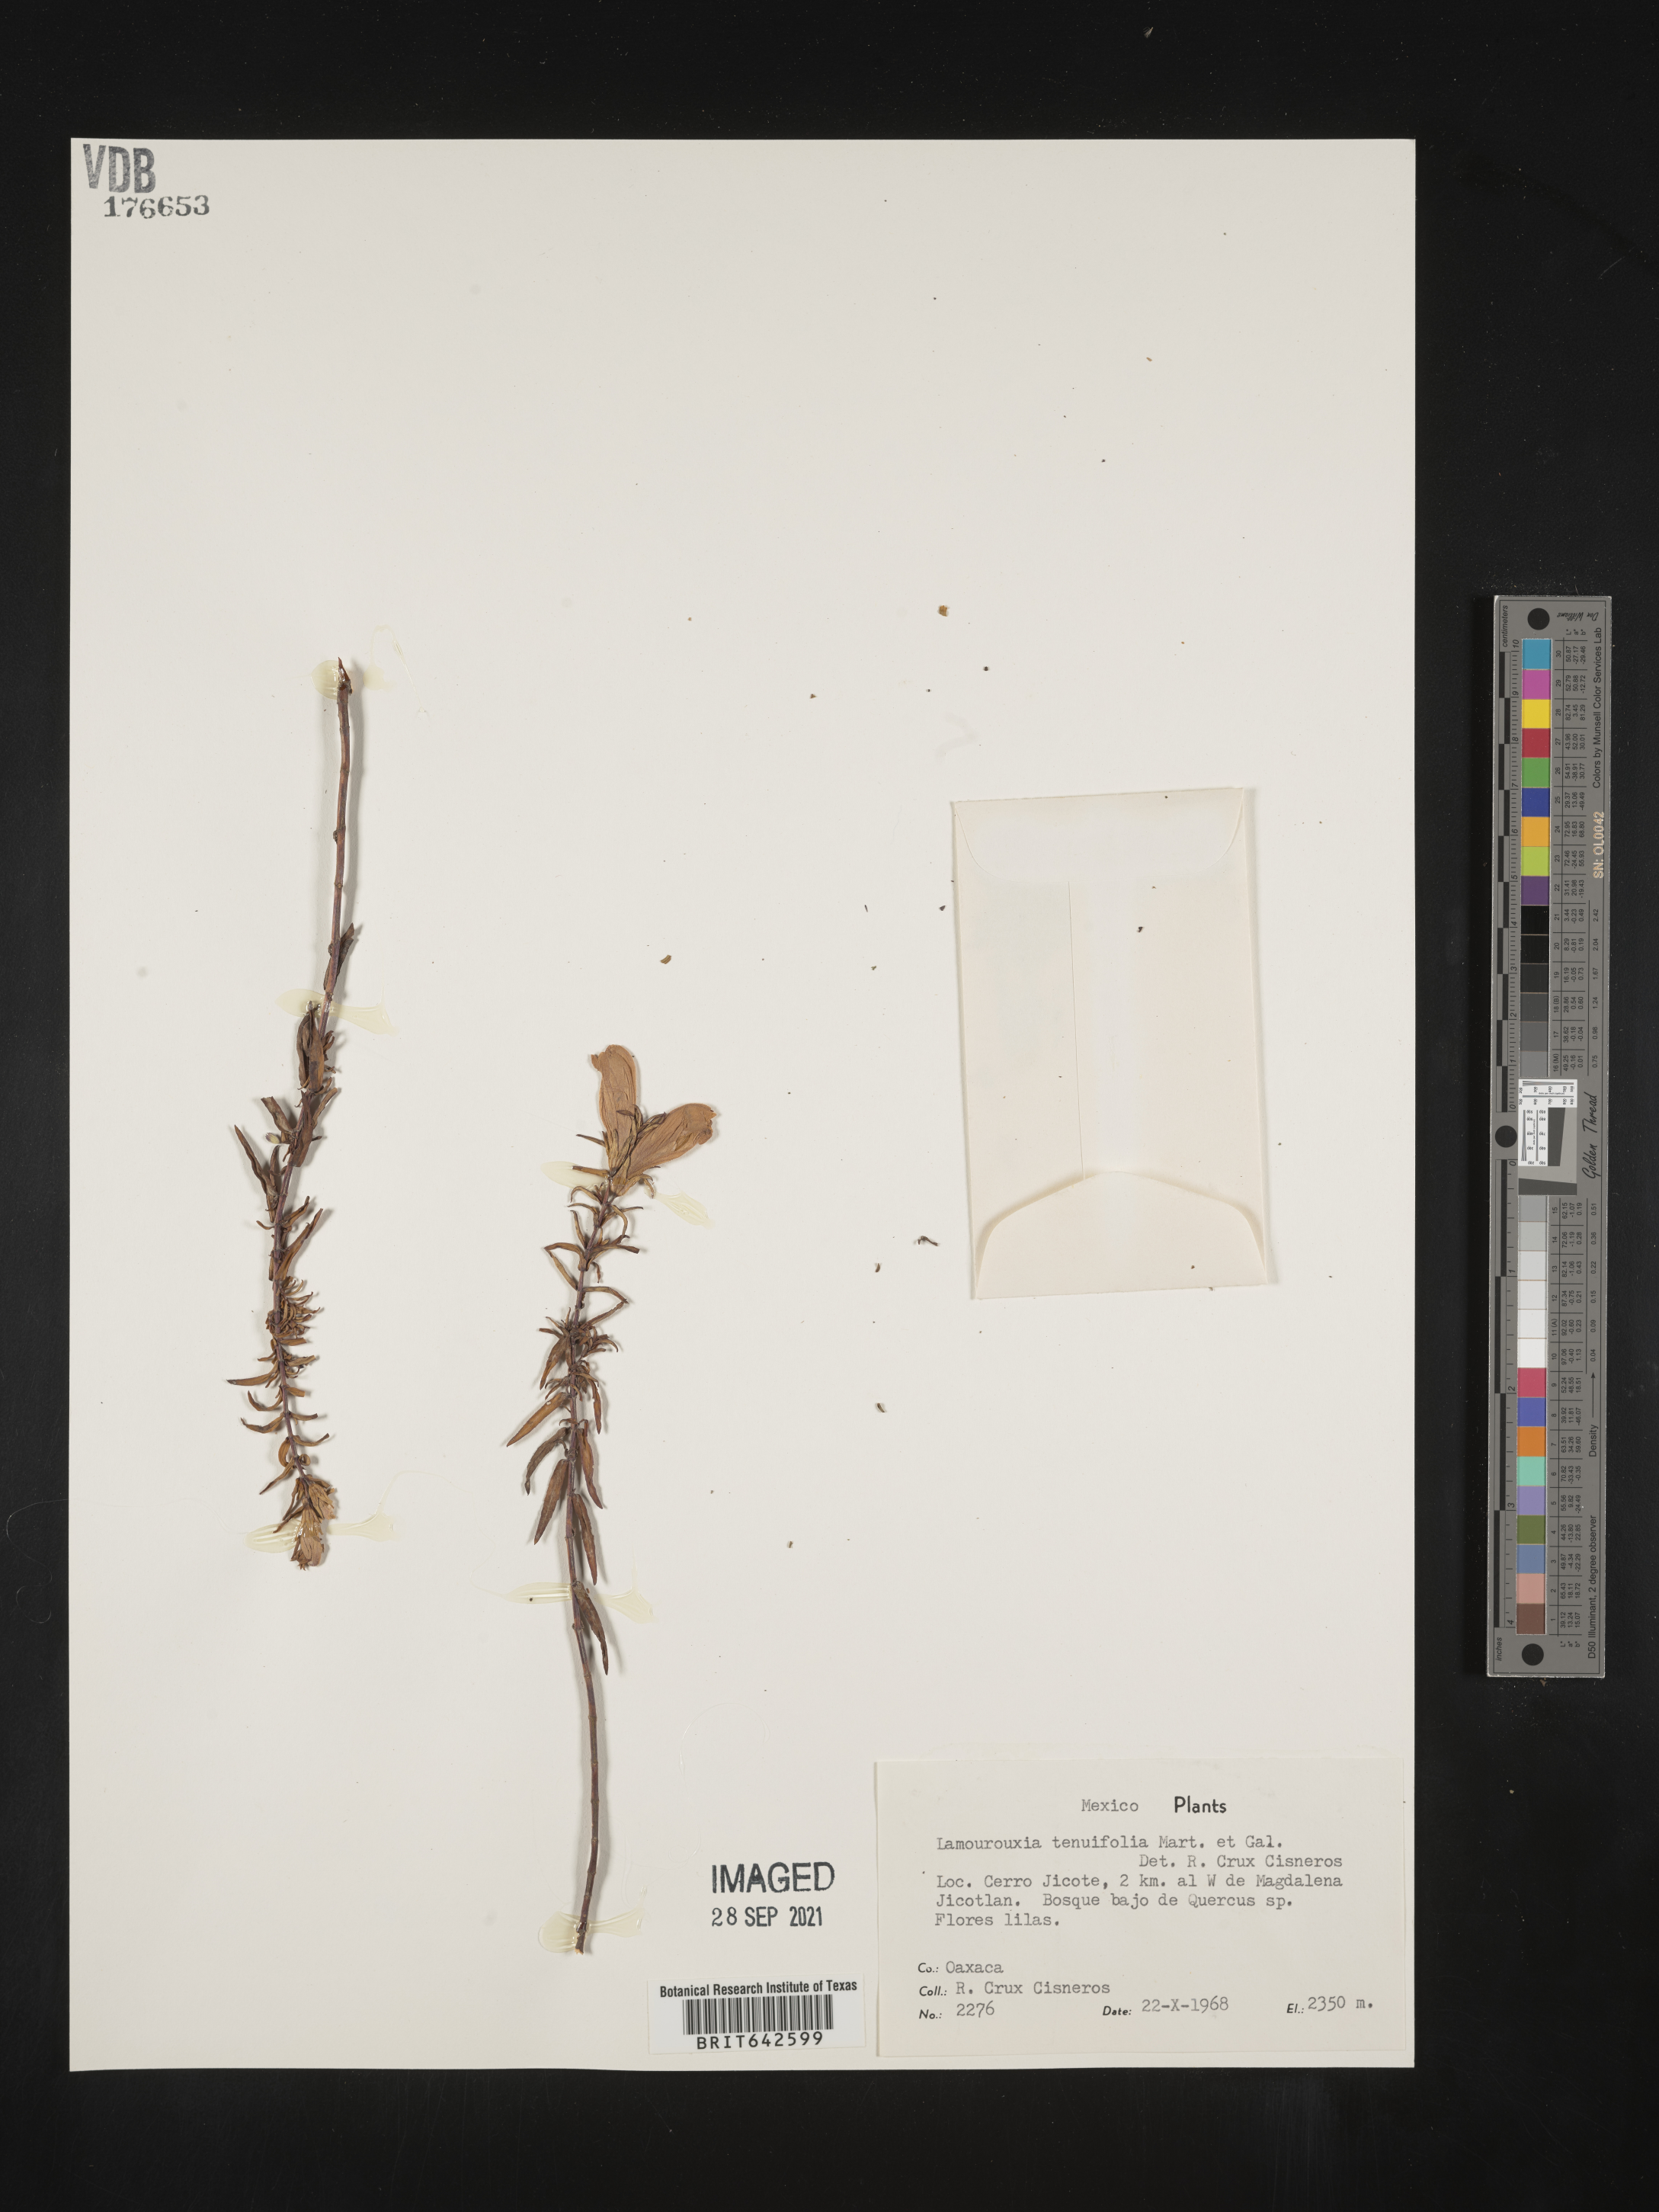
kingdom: Plantae
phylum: Tracheophyta
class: Magnoliopsida
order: Lamiales
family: Orobanchaceae
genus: Lamourouxia
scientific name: Lamourouxia
